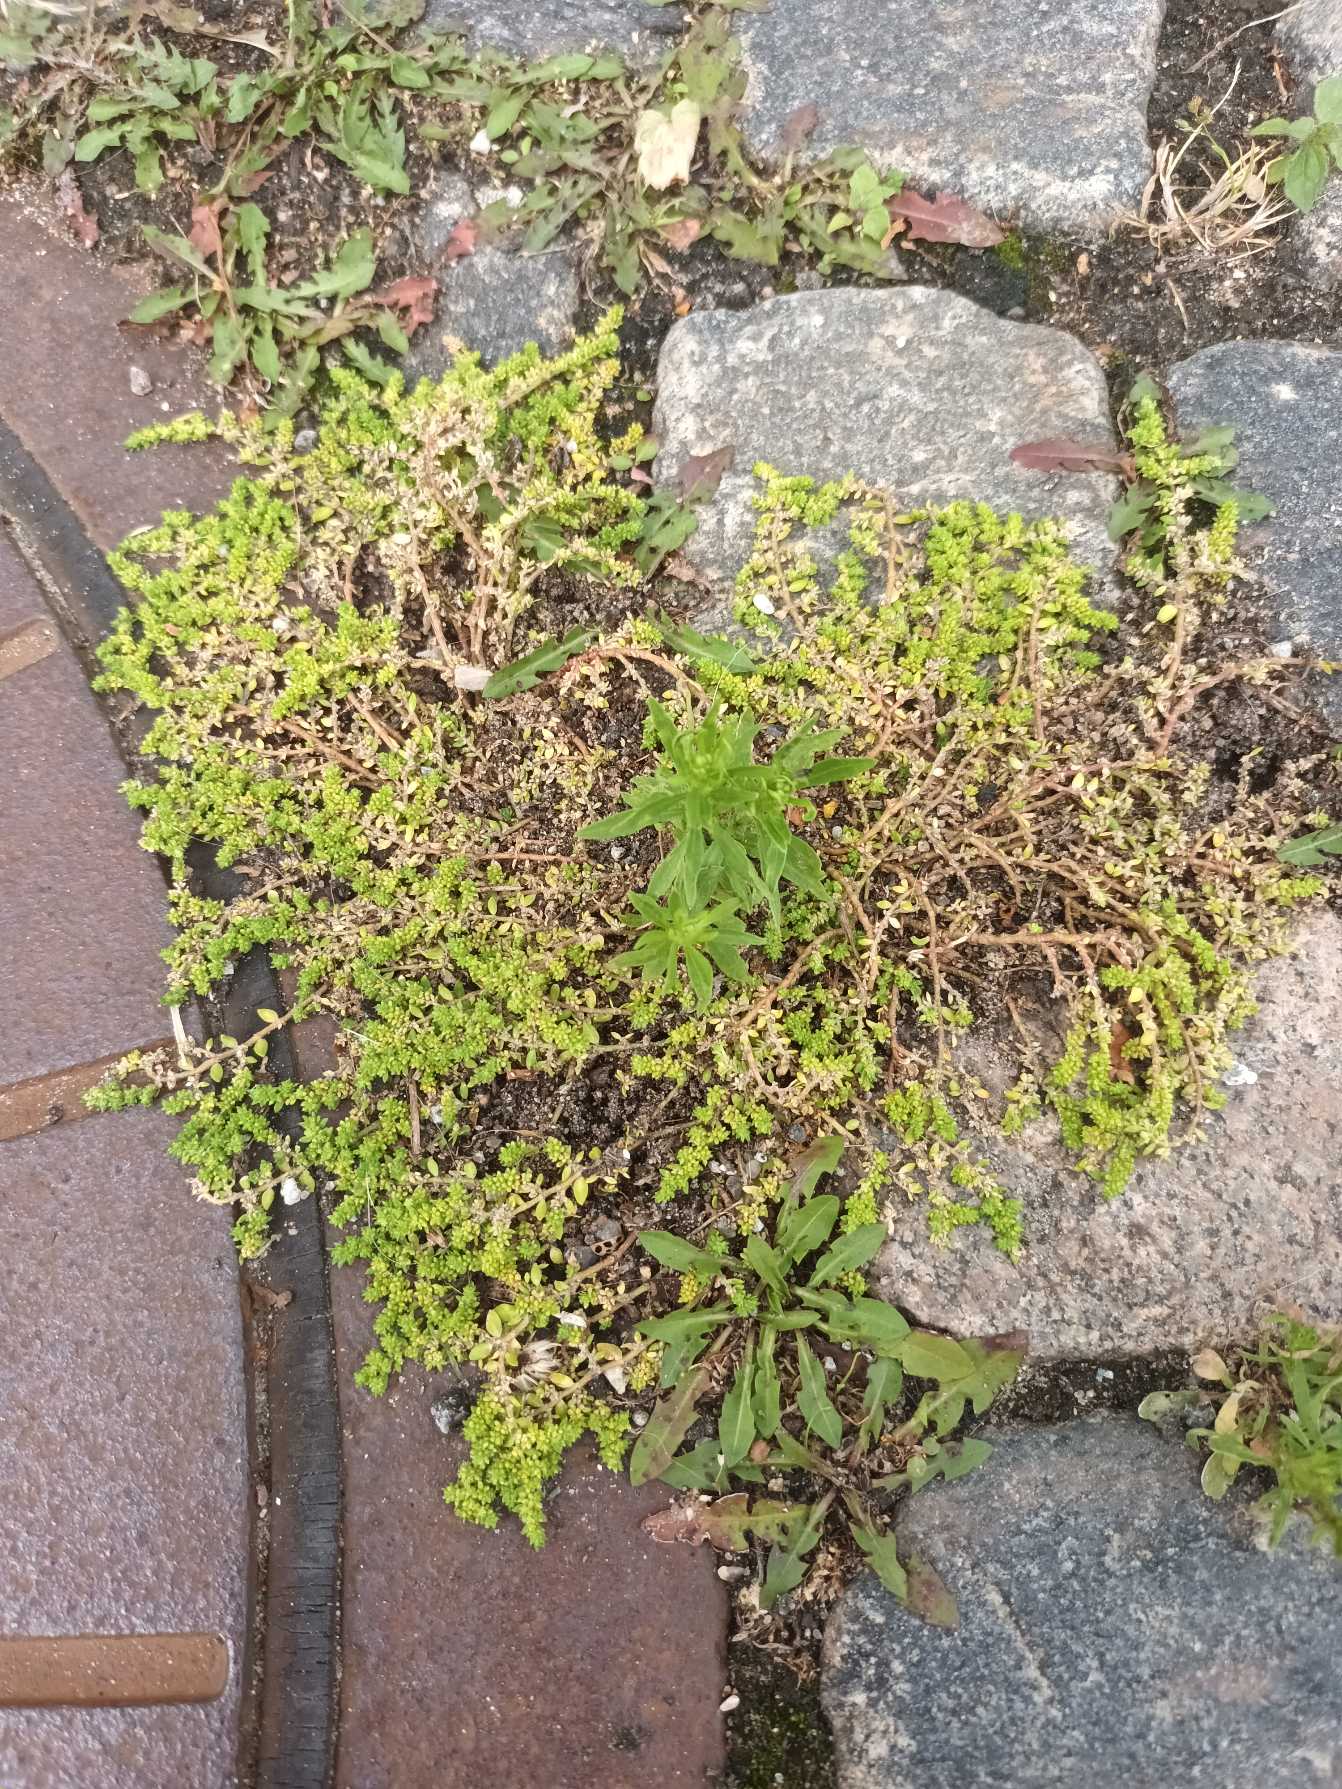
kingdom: Plantae
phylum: Tracheophyta
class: Magnoliopsida
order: Caryophyllales
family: Caryophyllaceae
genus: Herniaria
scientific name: Herniaria glabra
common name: Brudurt
